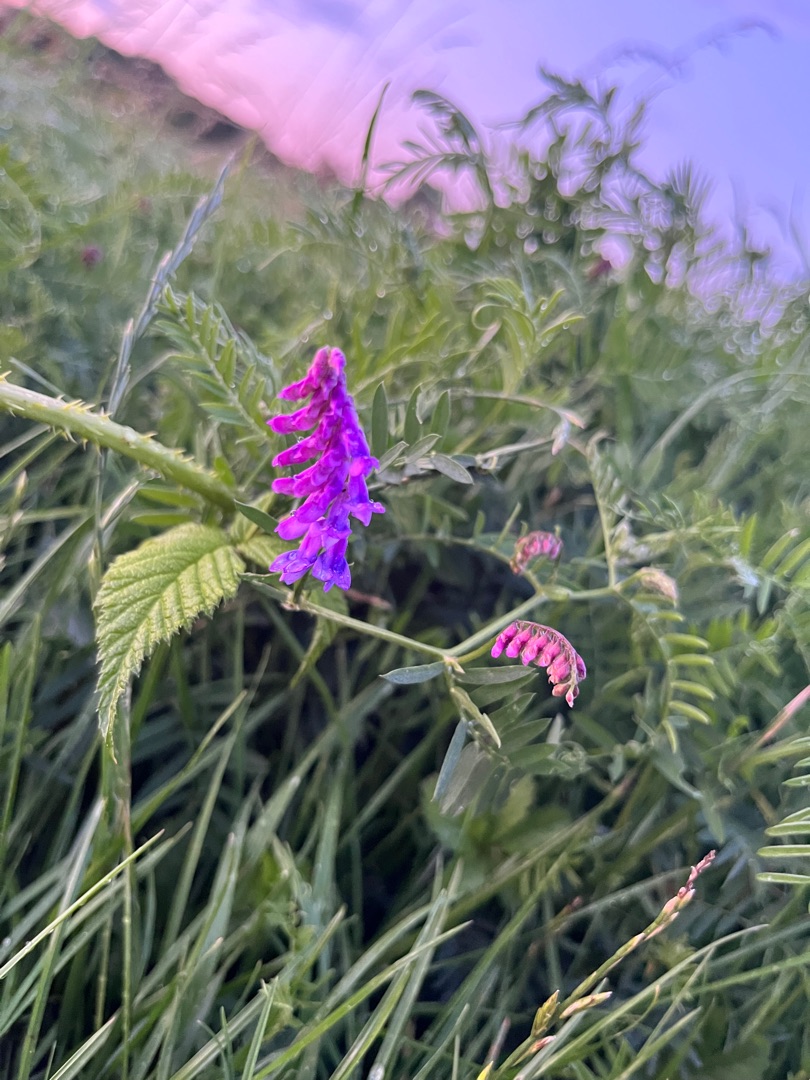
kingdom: Plantae
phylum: Tracheophyta
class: Magnoliopsida
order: Fabales
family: Fabaceae
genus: Vicia
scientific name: Vicia cracca
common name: Muse-vikke
